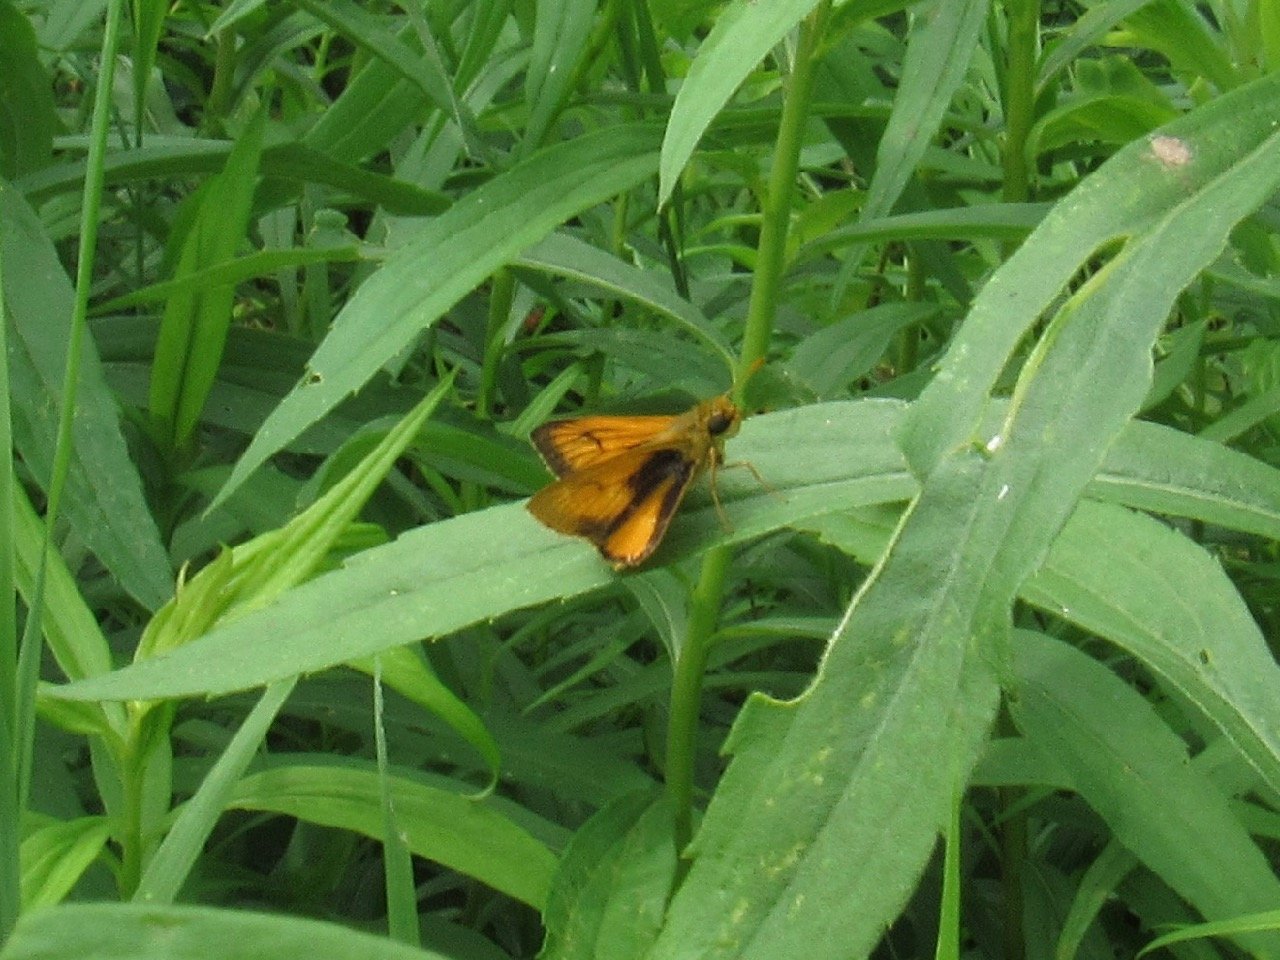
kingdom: Animalia
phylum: Arthropoda
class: Insecta
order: Lepidoptera
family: Hesperiidae
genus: Atrytone
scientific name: Atrytone delaware
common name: Delaware Skipper
